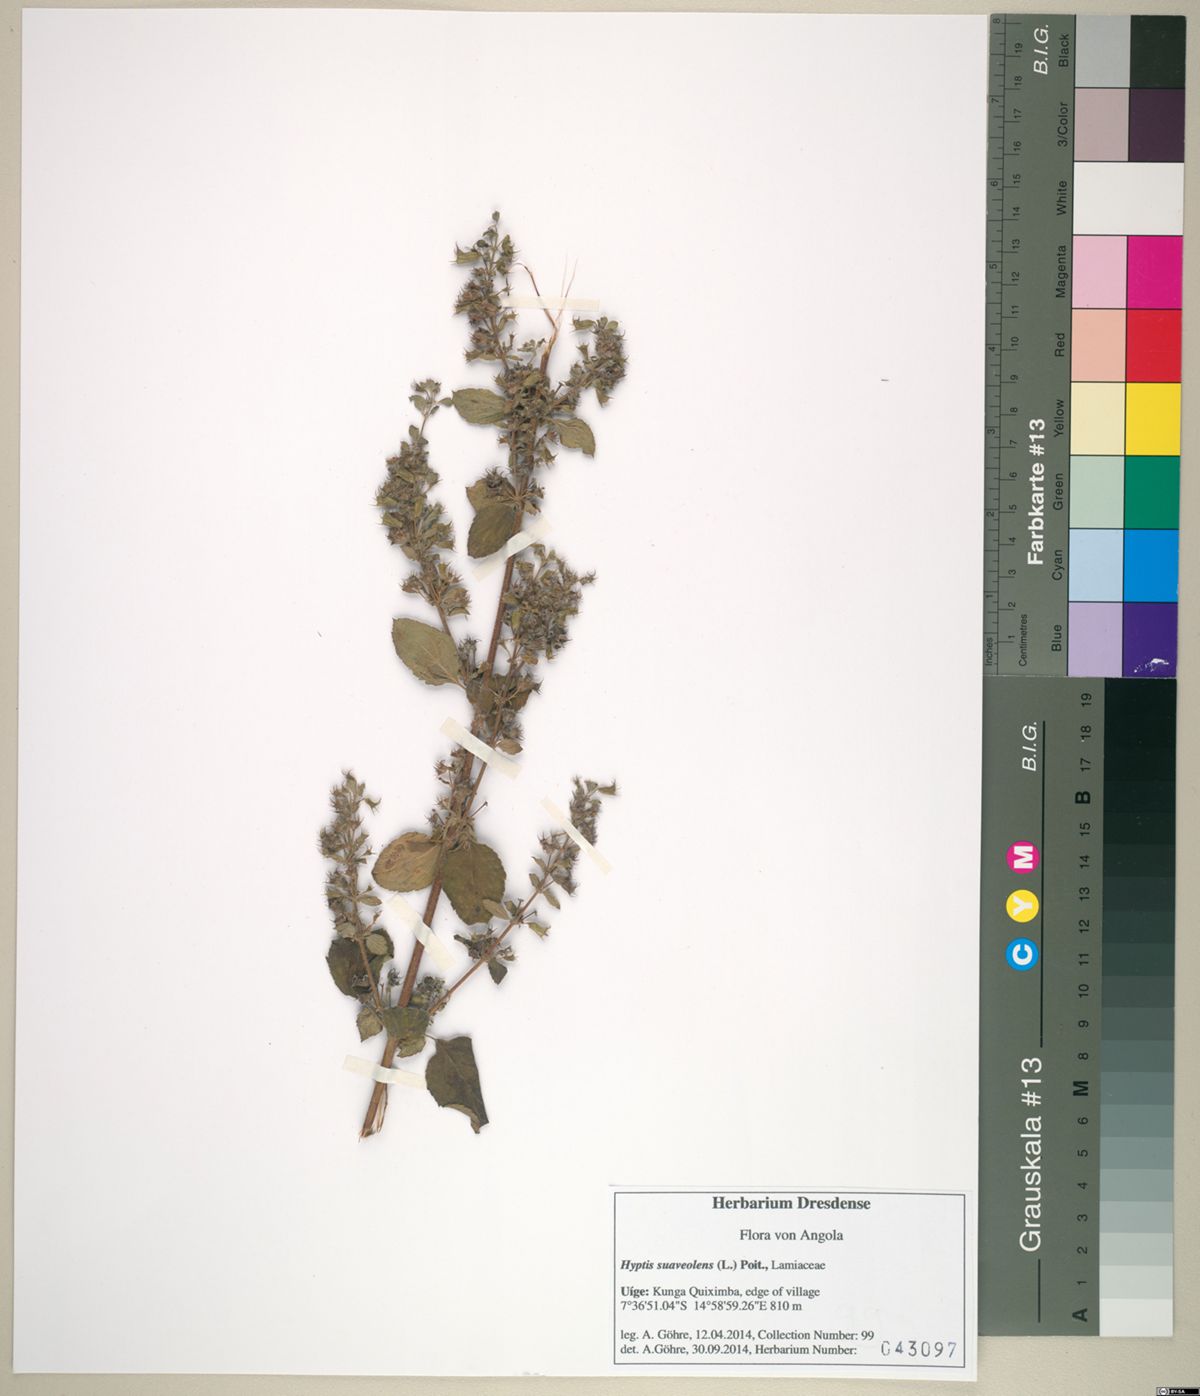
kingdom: Plantae
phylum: Tracheophyta
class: Magnoliopsida
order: Lamiales
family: Lamiaceae
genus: Mesosphaerum
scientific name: Mesosphaerum suaveolens
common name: Pignut
